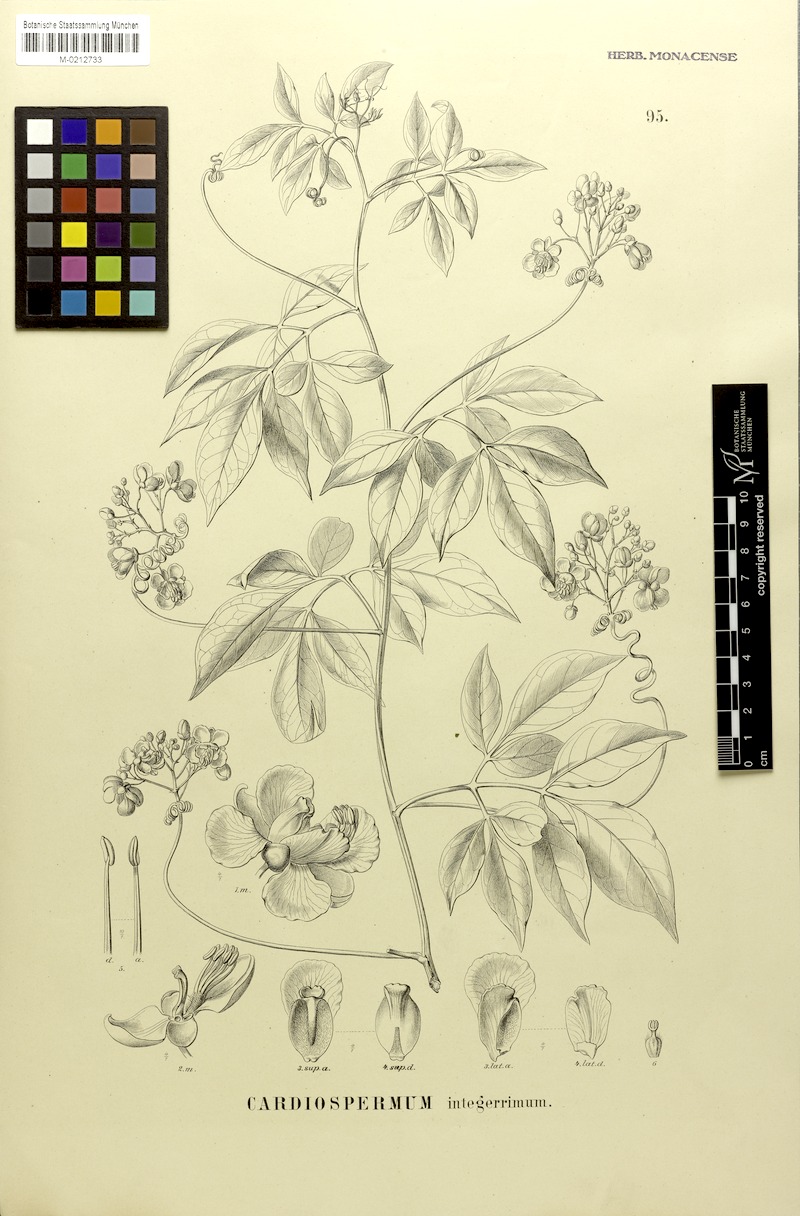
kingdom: Plantae
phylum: Tracheophyta
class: Magnoliopsida
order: Sapindales
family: Sapindaceae
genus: Cardiospermum
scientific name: Cardiospermum integerrimum
